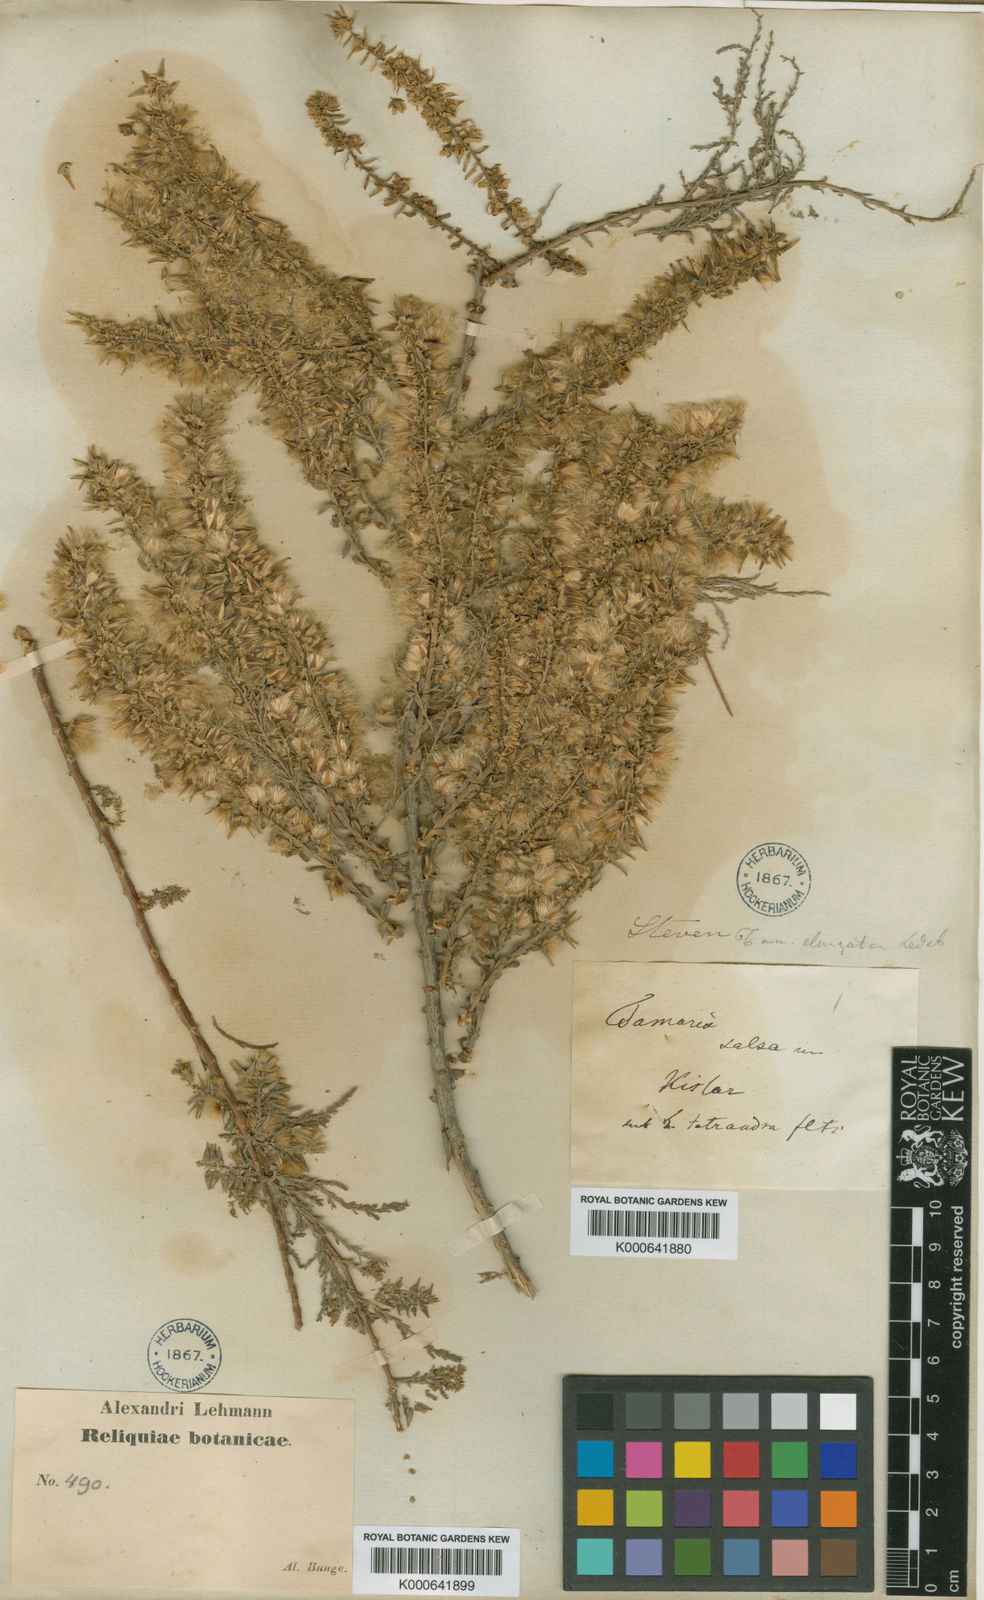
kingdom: Plantae
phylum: Tracheophyta
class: Magnoliopsida
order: Caryophyllales
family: Tamaricaceae
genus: Tamarix
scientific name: Tamarix elongata
